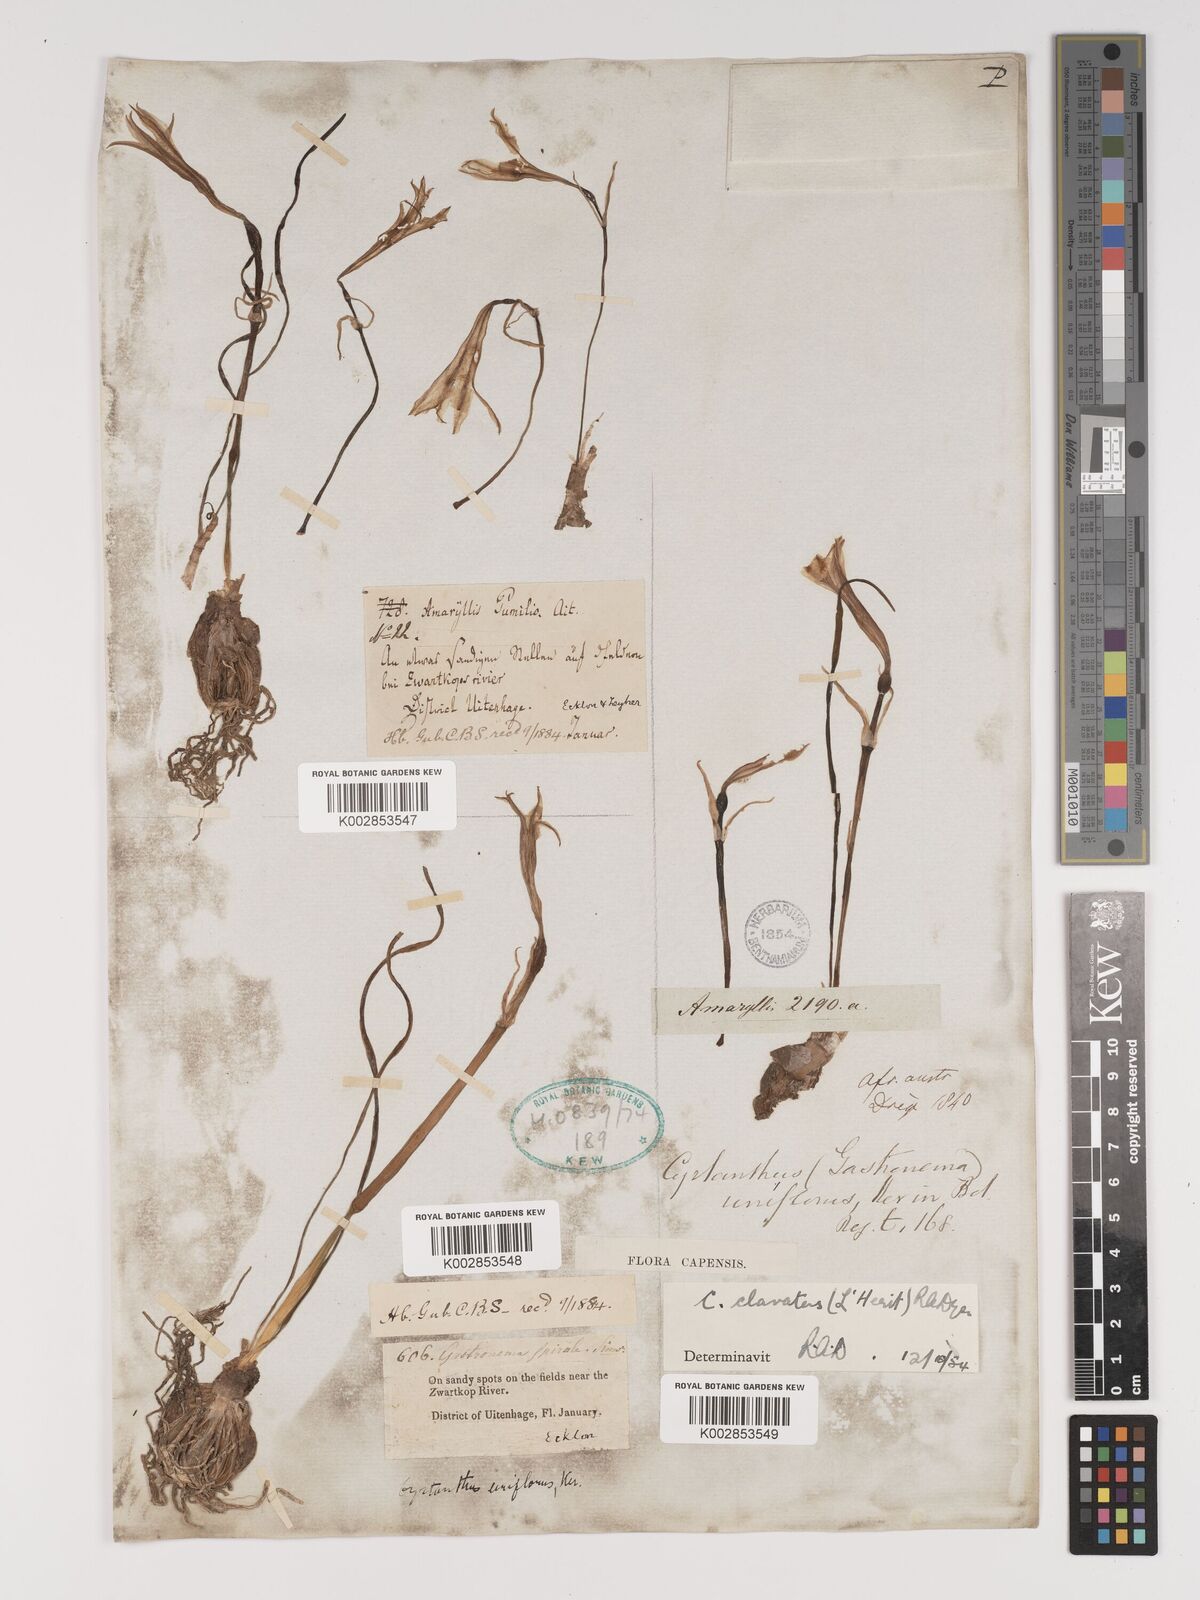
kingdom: Plantae
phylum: Tracheophyta
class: Liliopsida
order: Asparagales
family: Amaryllidaceae
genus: Cyrtanthus
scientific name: Cyrtanthus clavatus
